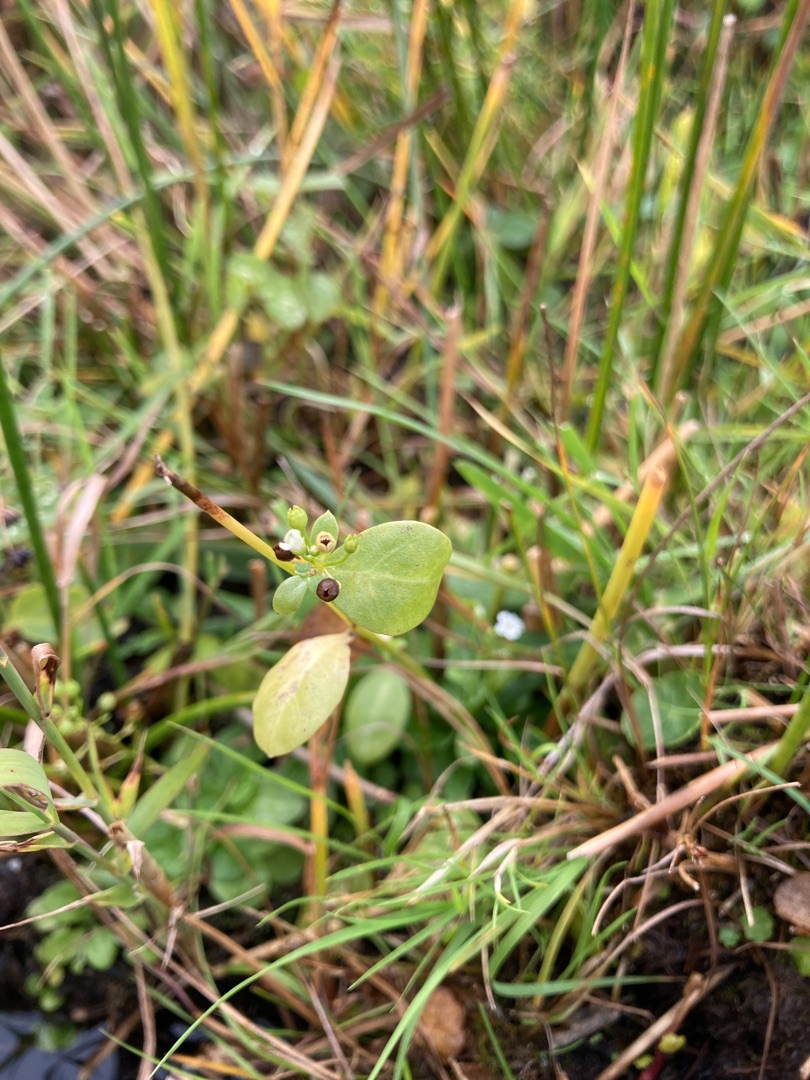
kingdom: Plantae
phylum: Tracheophyta
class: Magnoliopsida
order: Ericales
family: Primulaceae
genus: Samolus
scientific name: Samolus valerandi
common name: Samel
